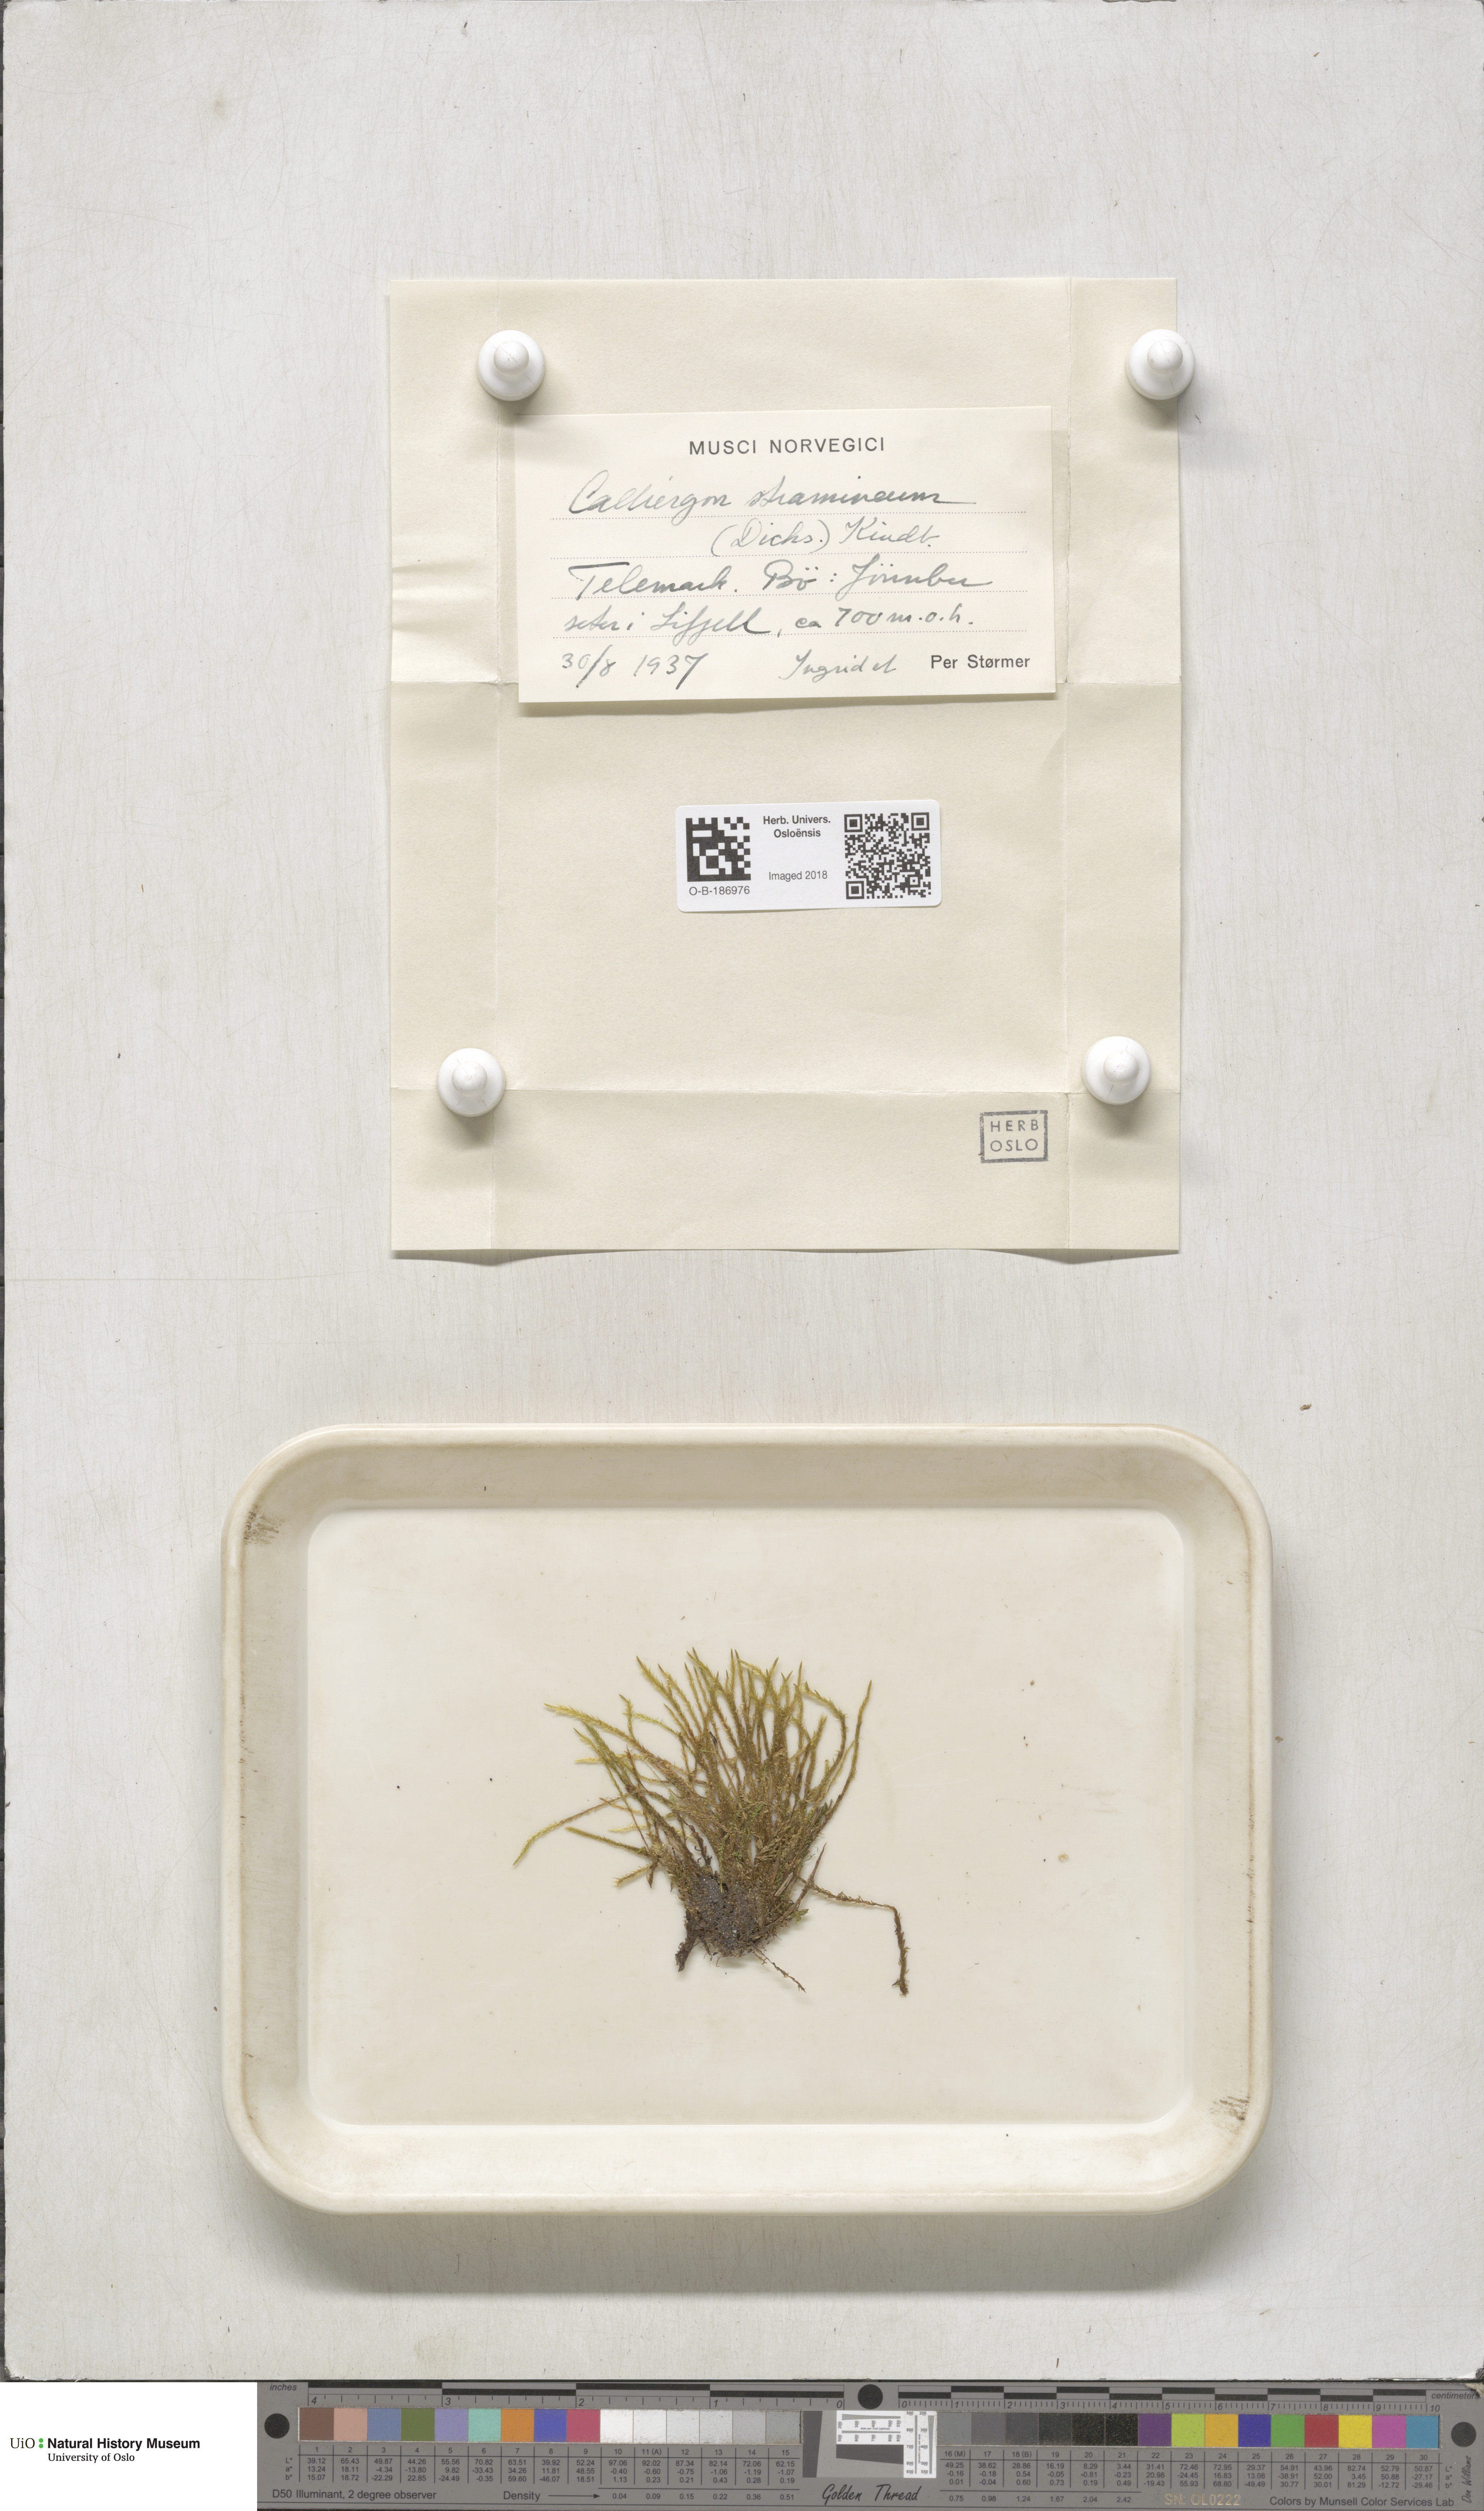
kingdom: Plantae
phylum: Bryophyta
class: Bryopsida
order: Hypnales
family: Calliergonaceae
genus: Straminergon
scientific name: Straminergon stramineum
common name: Straw moss
